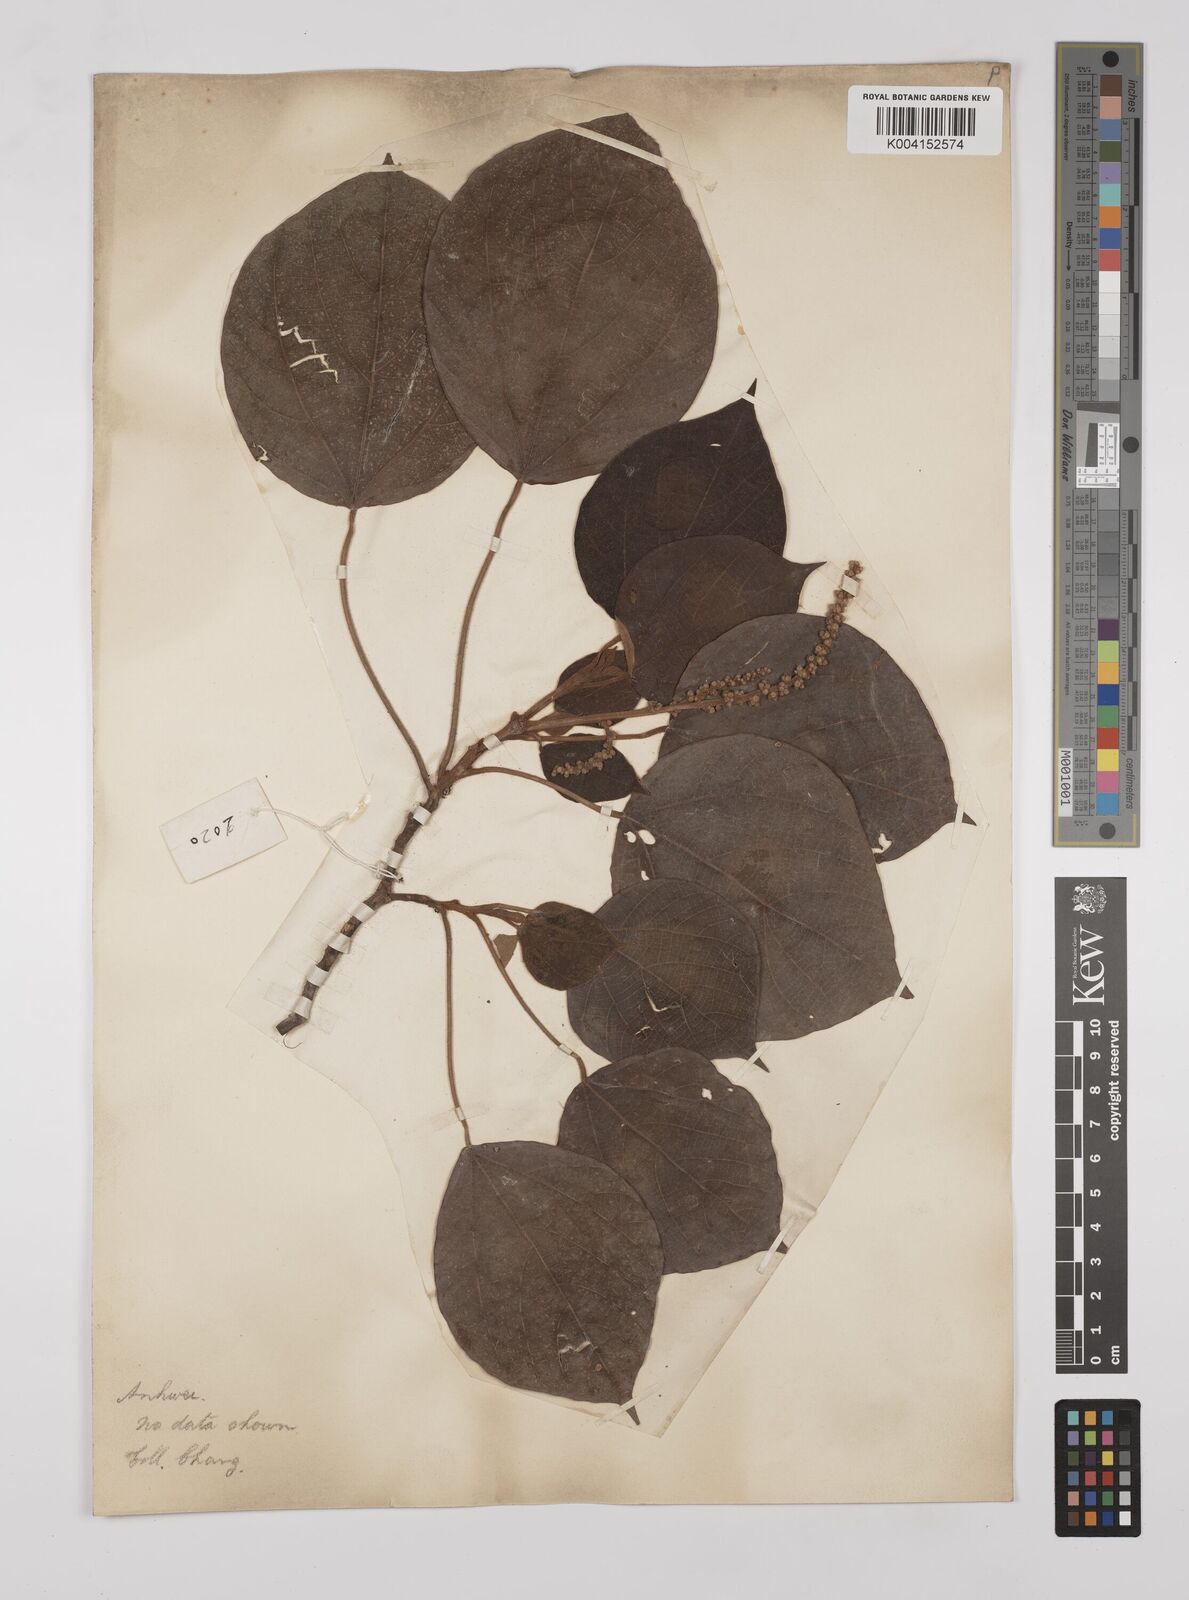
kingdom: Plantae
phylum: Tracheophyta
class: Magnoliopsida
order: Malpighiales
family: Euphorbiaceae
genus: Mallotus
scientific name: Mallotus japonicus
